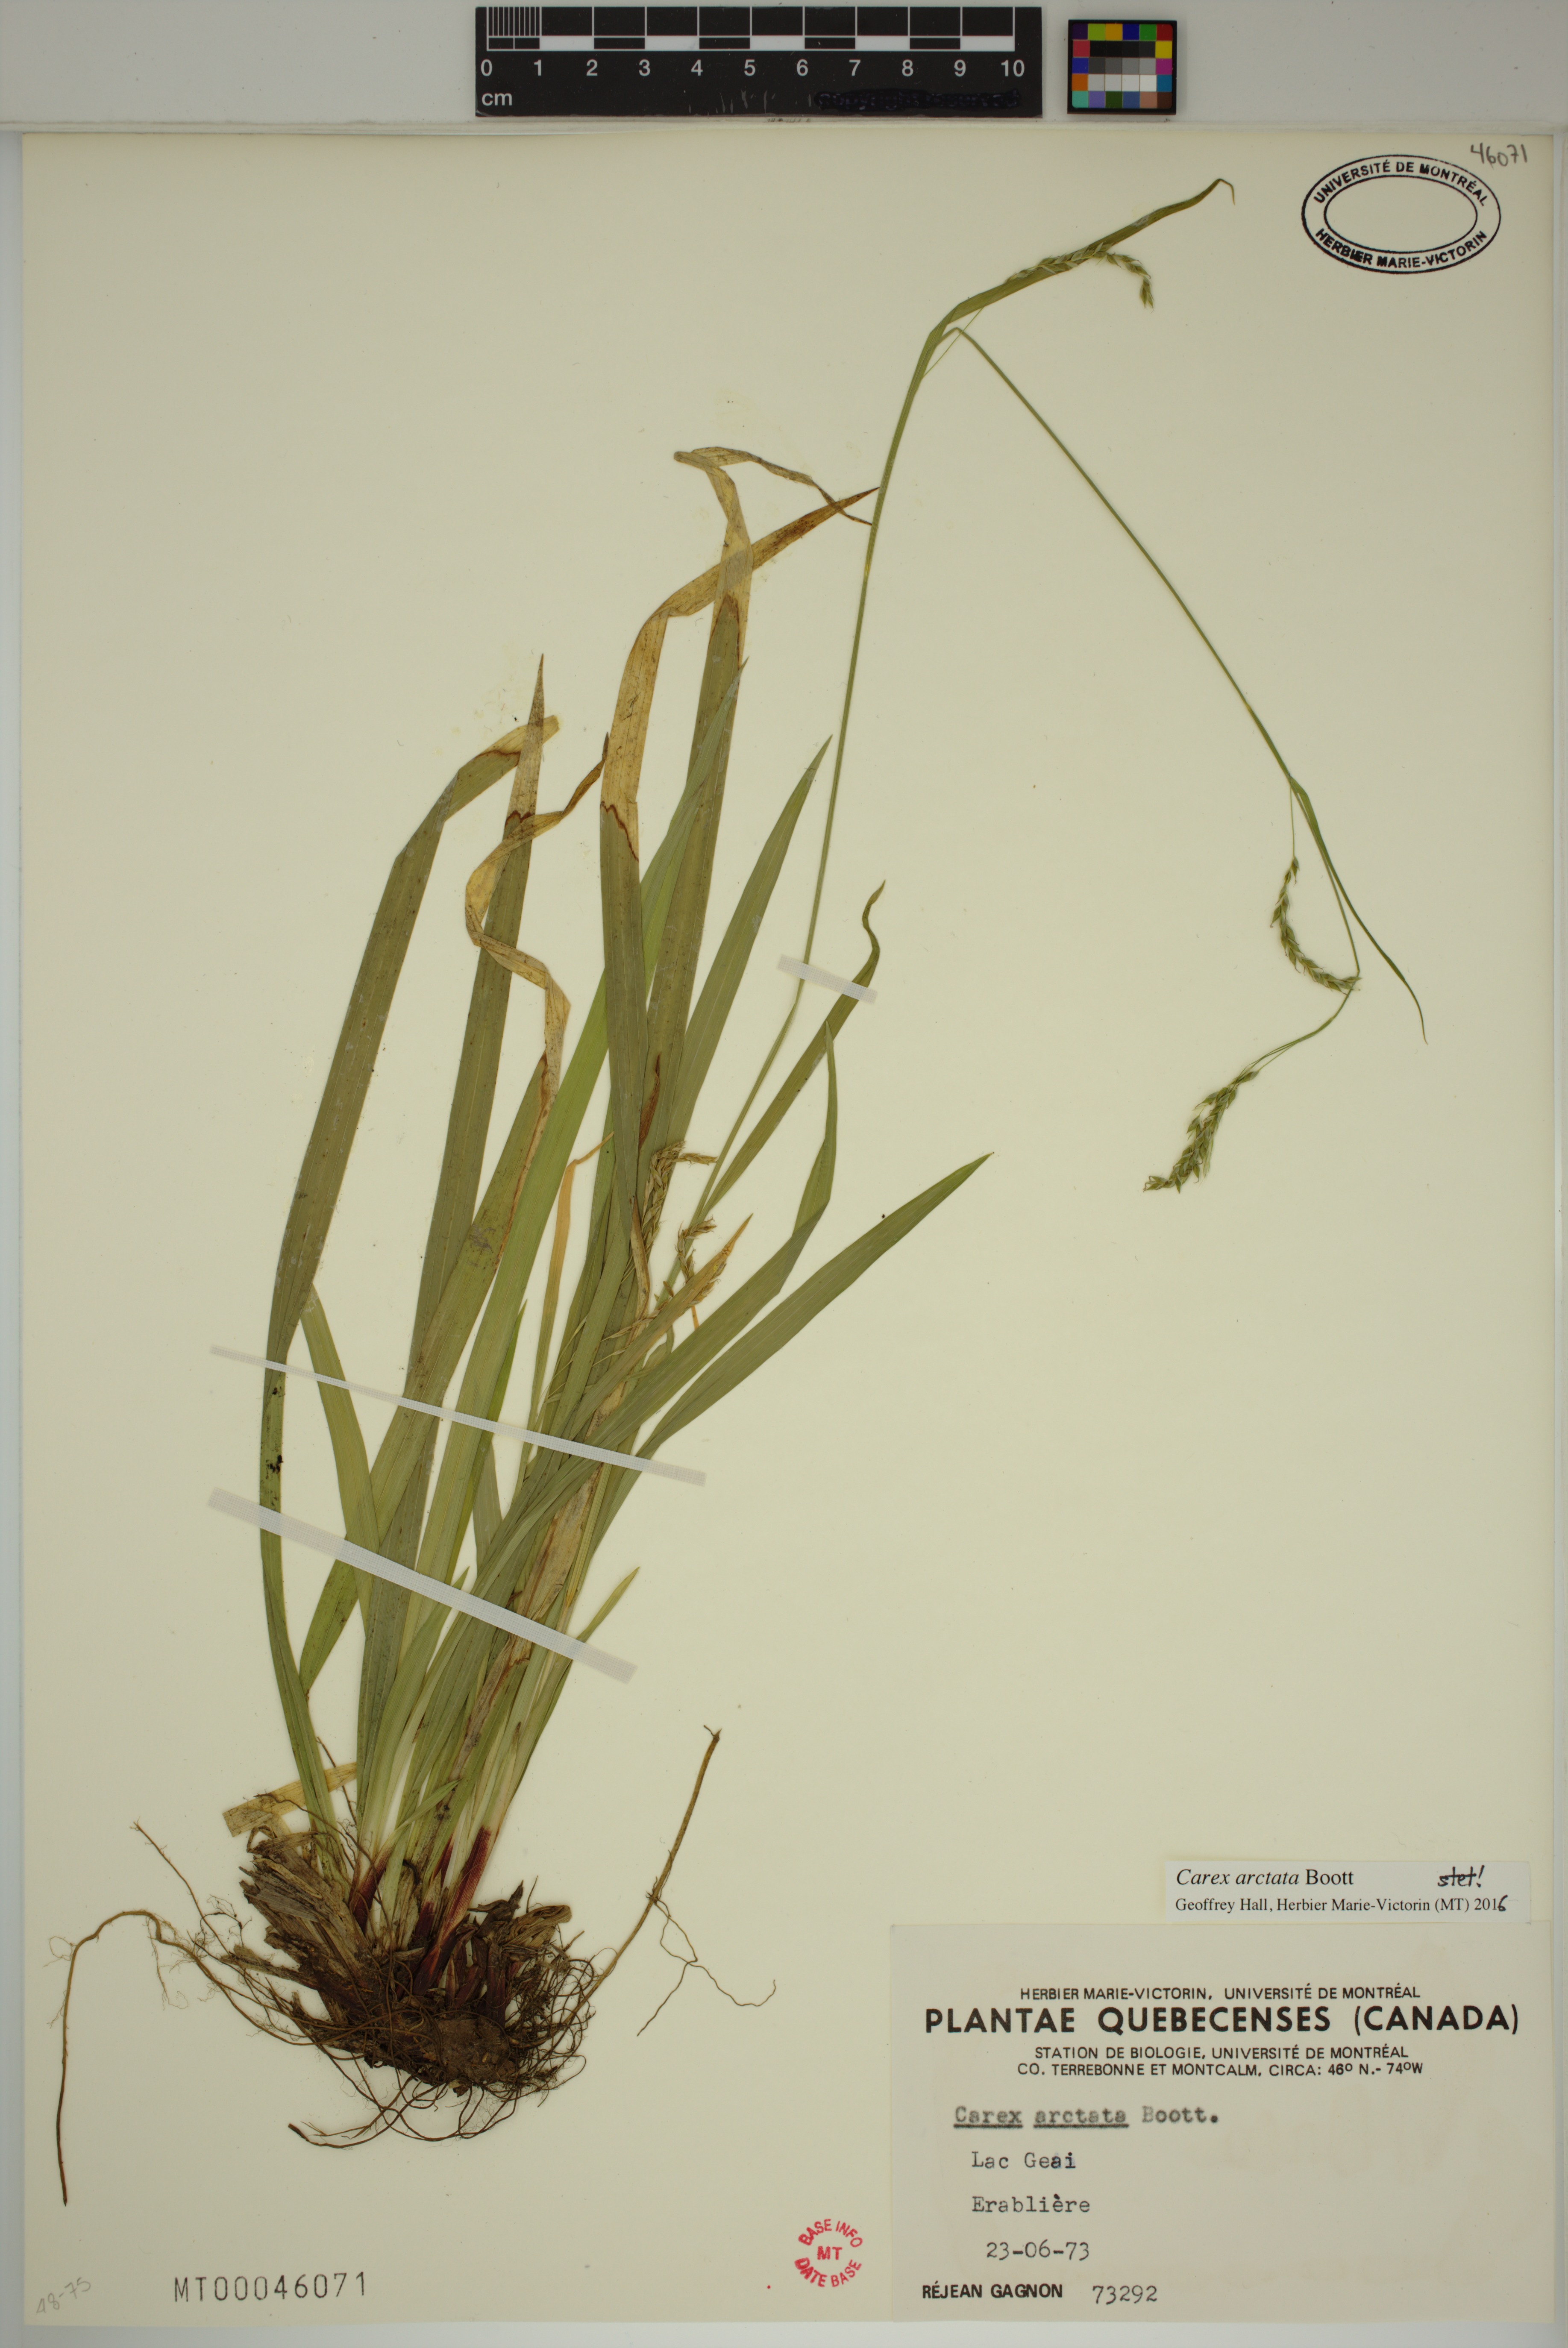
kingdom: Plantae
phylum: Tracheophyta
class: Liliopsida
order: Poales
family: Cyperaceae
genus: Carex
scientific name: Carex arctata
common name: Black sedge
